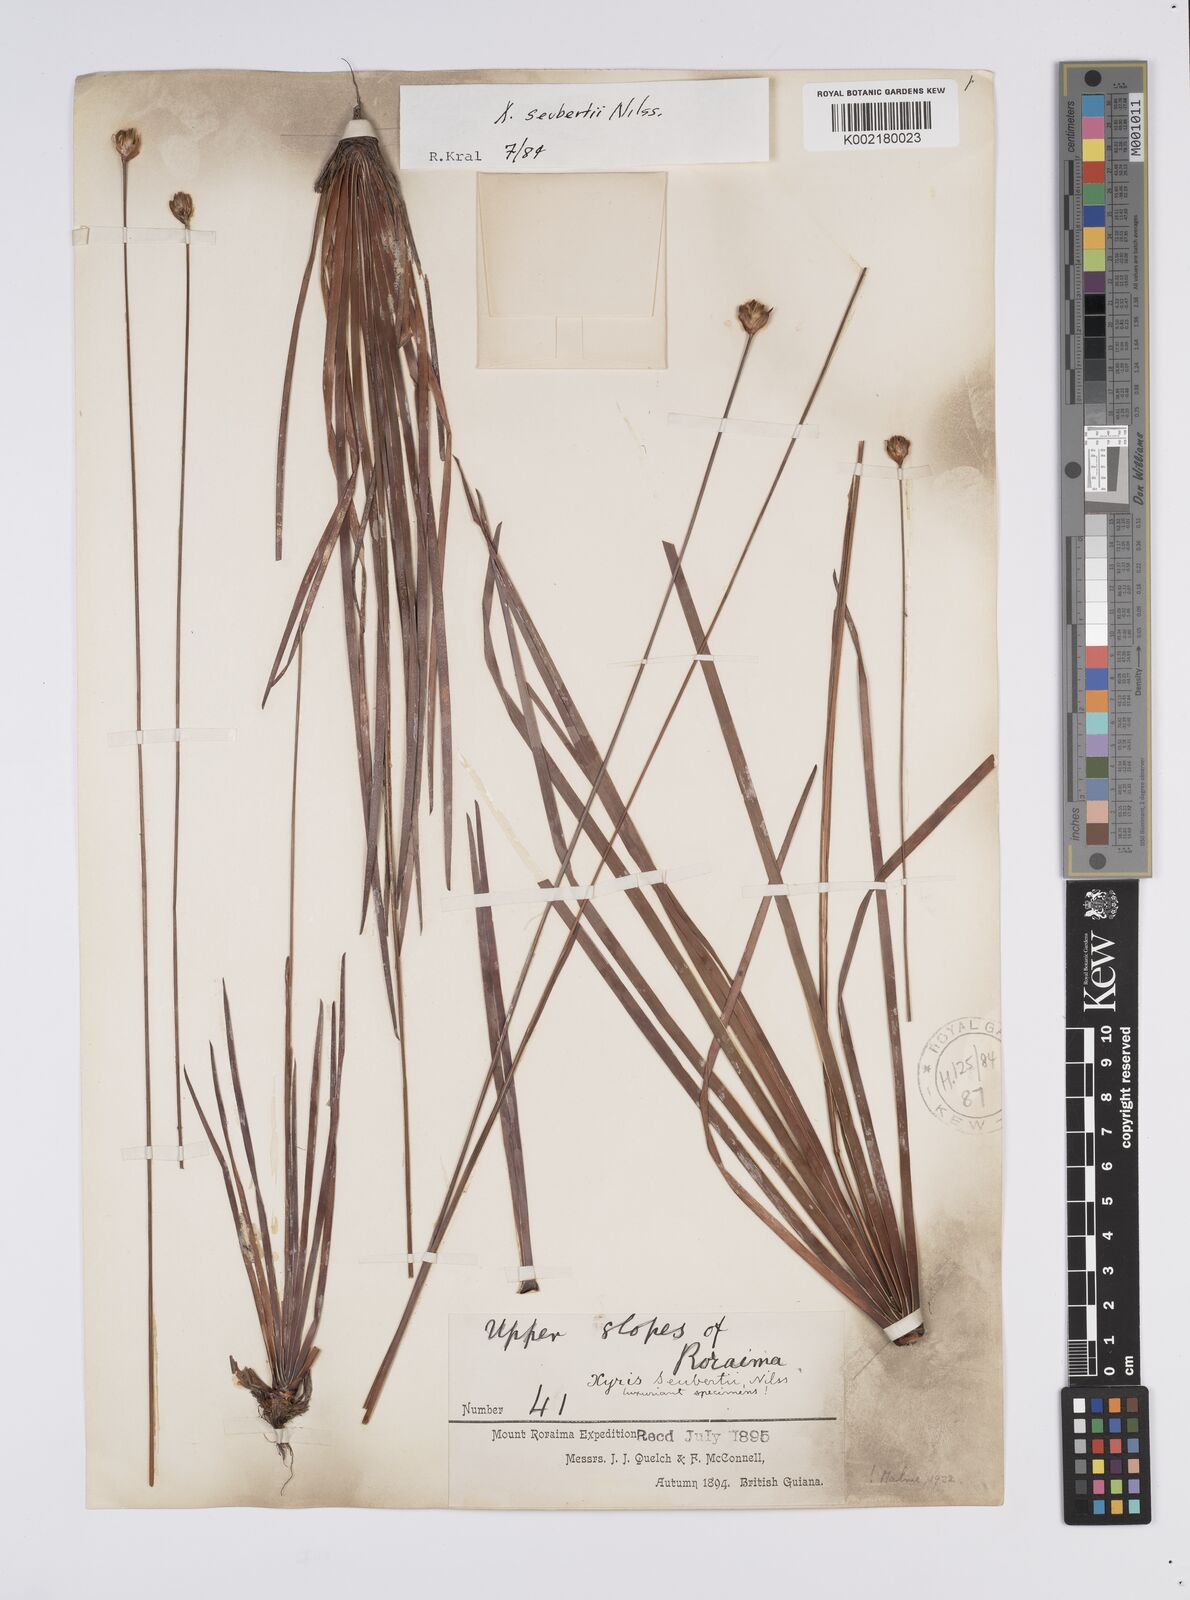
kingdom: Plantae
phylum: Tracheophyta
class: Liliopsida
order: Poales
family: Xyridaceae
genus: Xyris
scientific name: Xyris seubertii
